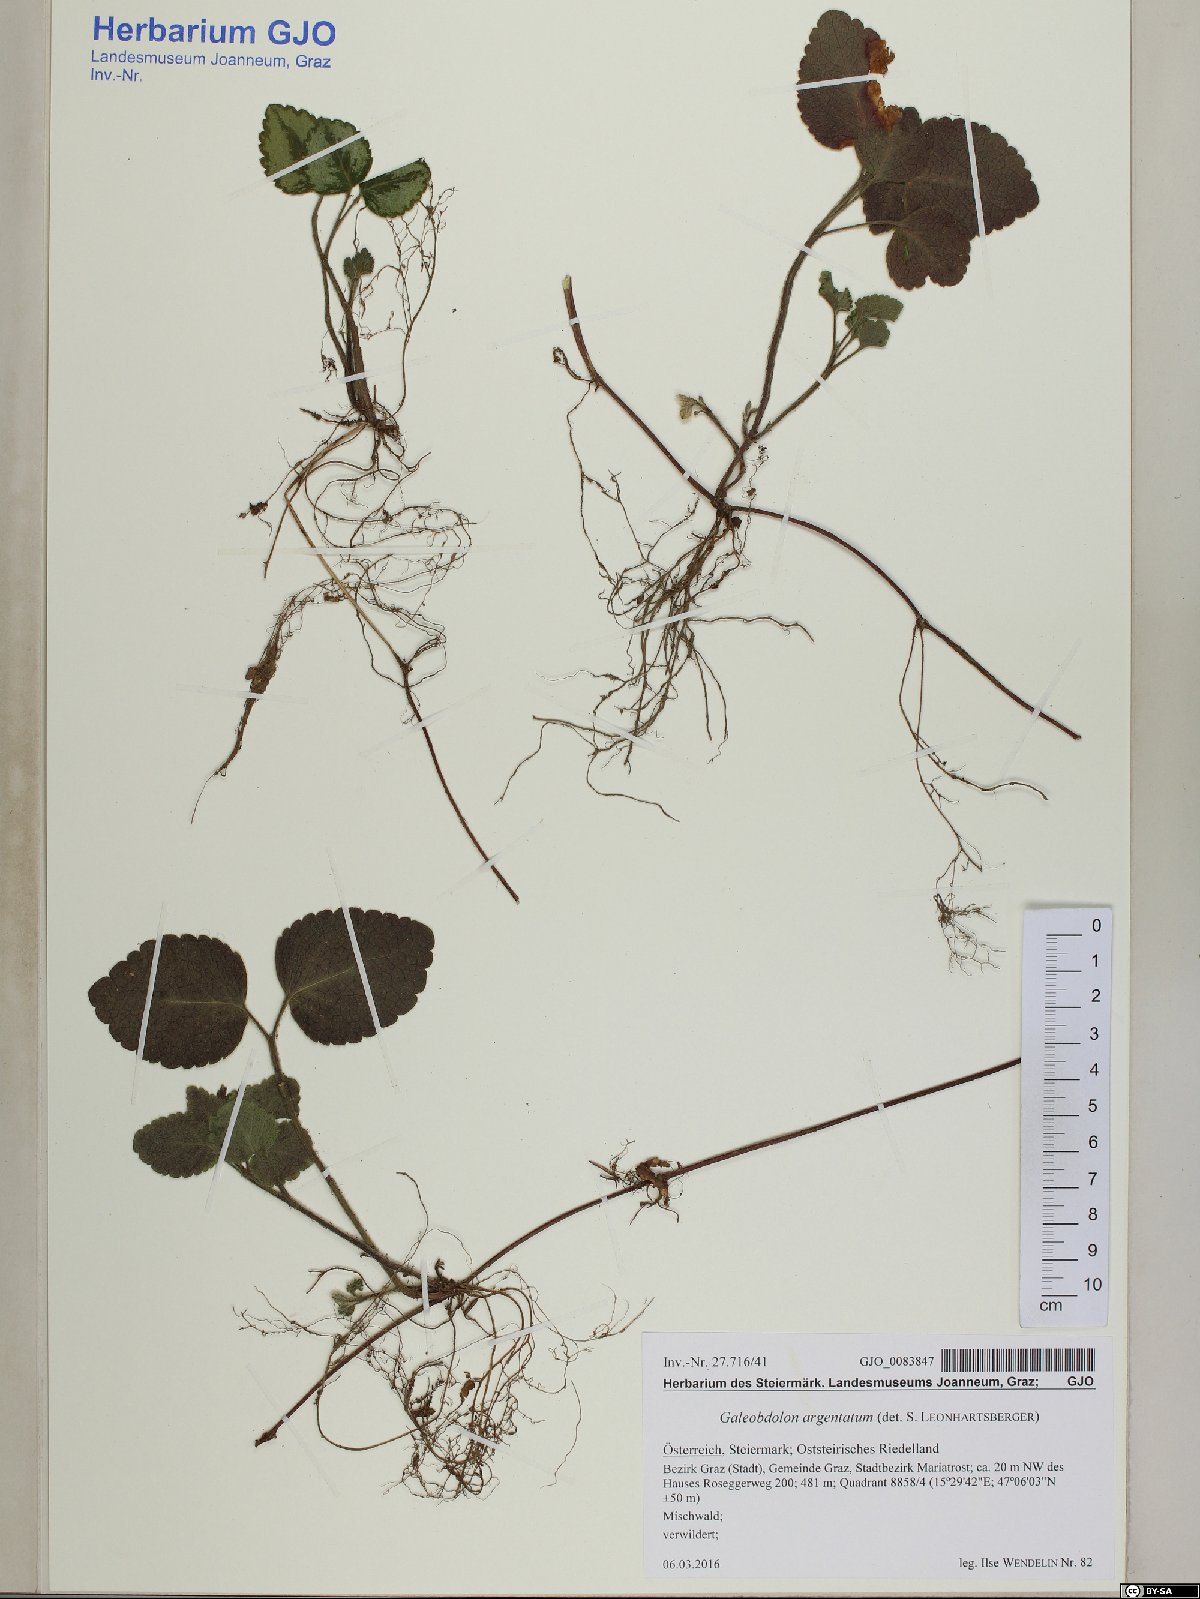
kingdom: Plantae
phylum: Tracheophyta
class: Magnoliopsida
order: Lamiales
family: Lamiaceae
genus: Lamium
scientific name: Lamium galeobdolon
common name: Yellow archangel
